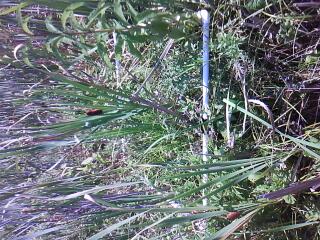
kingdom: Plantae
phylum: Tracheophyta
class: Liliopsida
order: Poales
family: Cyperaceae
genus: Carex
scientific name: Carex leptalea
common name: Bristly-stalked sedge
